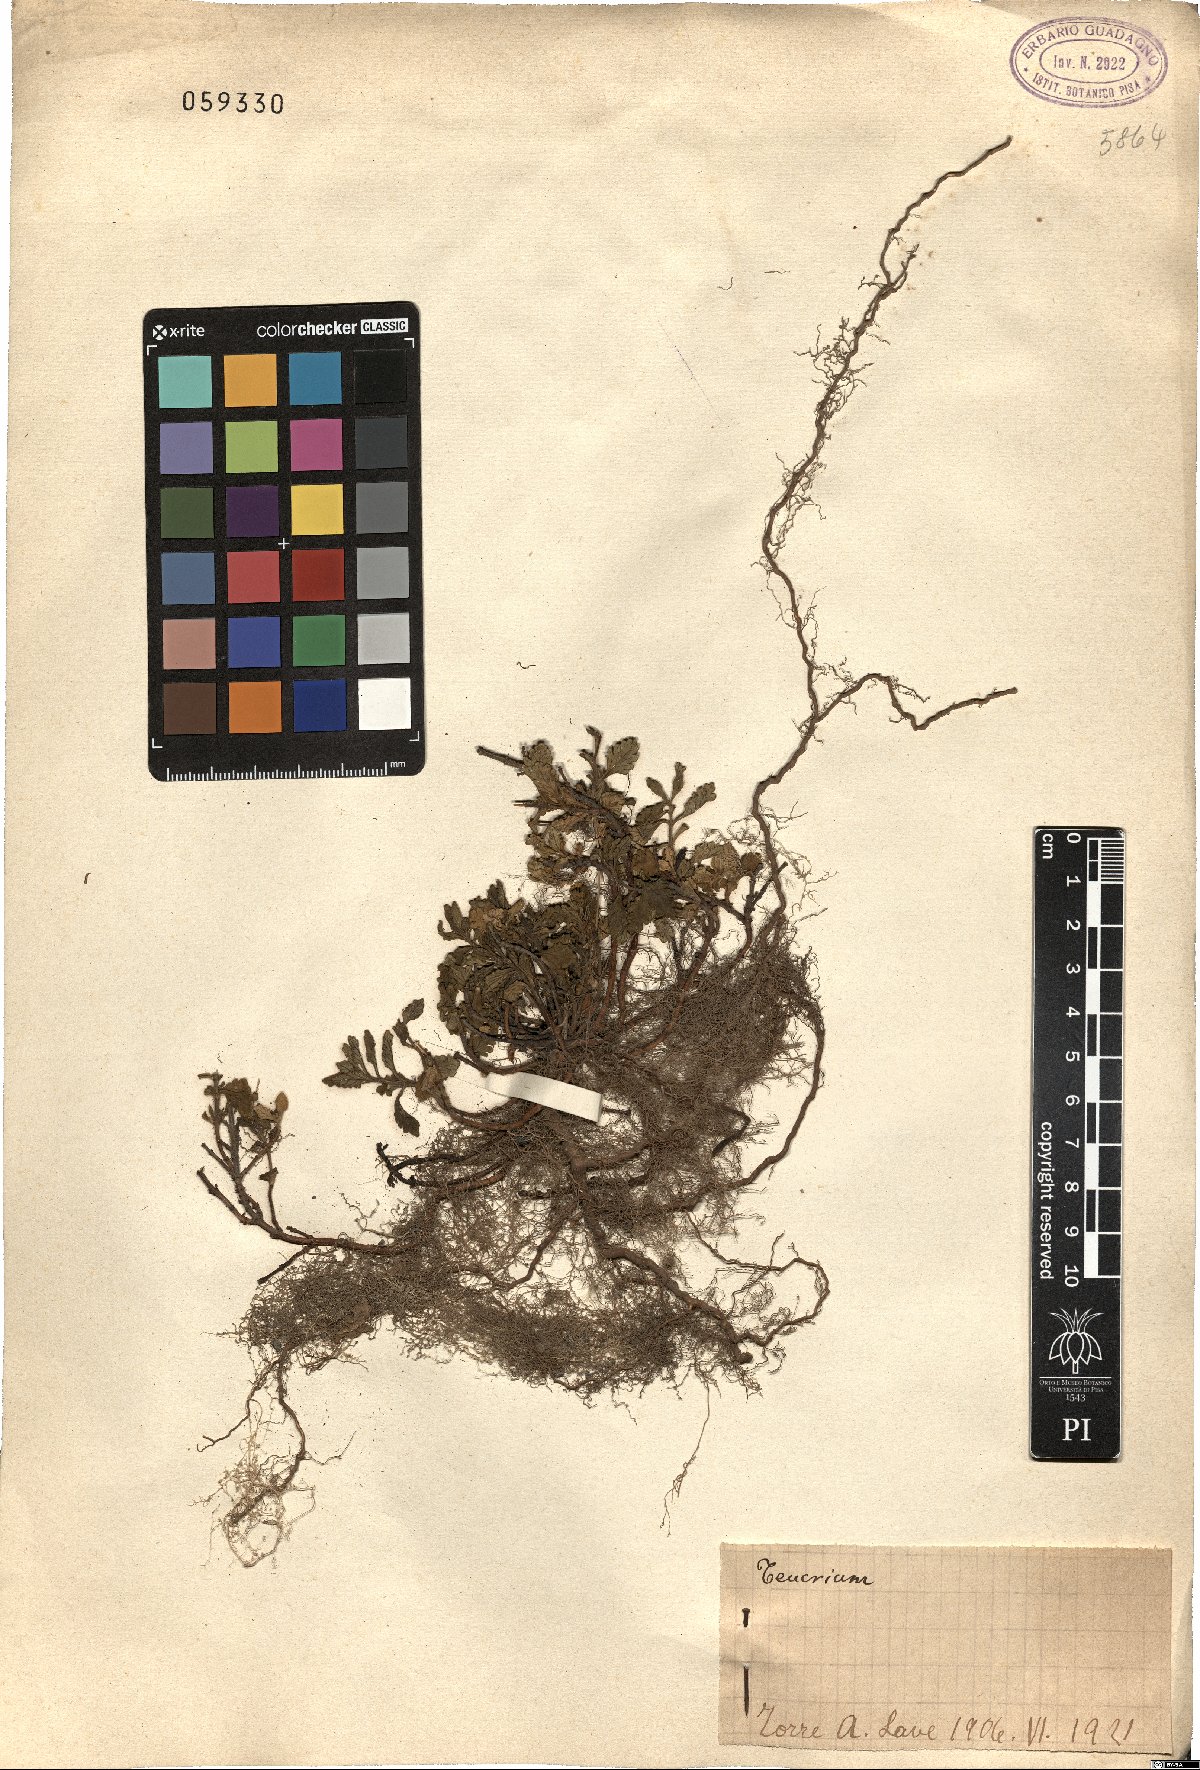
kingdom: Plantae
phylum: Tracheophyta
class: Magnoliopsida
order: Lamiales
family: Lamiaceae
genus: Teucrium
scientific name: Teucrium
